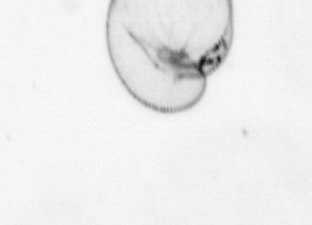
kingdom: Chromista
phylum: Myzozoa
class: Dinophyceae
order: Noctilucales
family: Noctilucaceae
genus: Noctiluca
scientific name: Noctiluca scintillans
